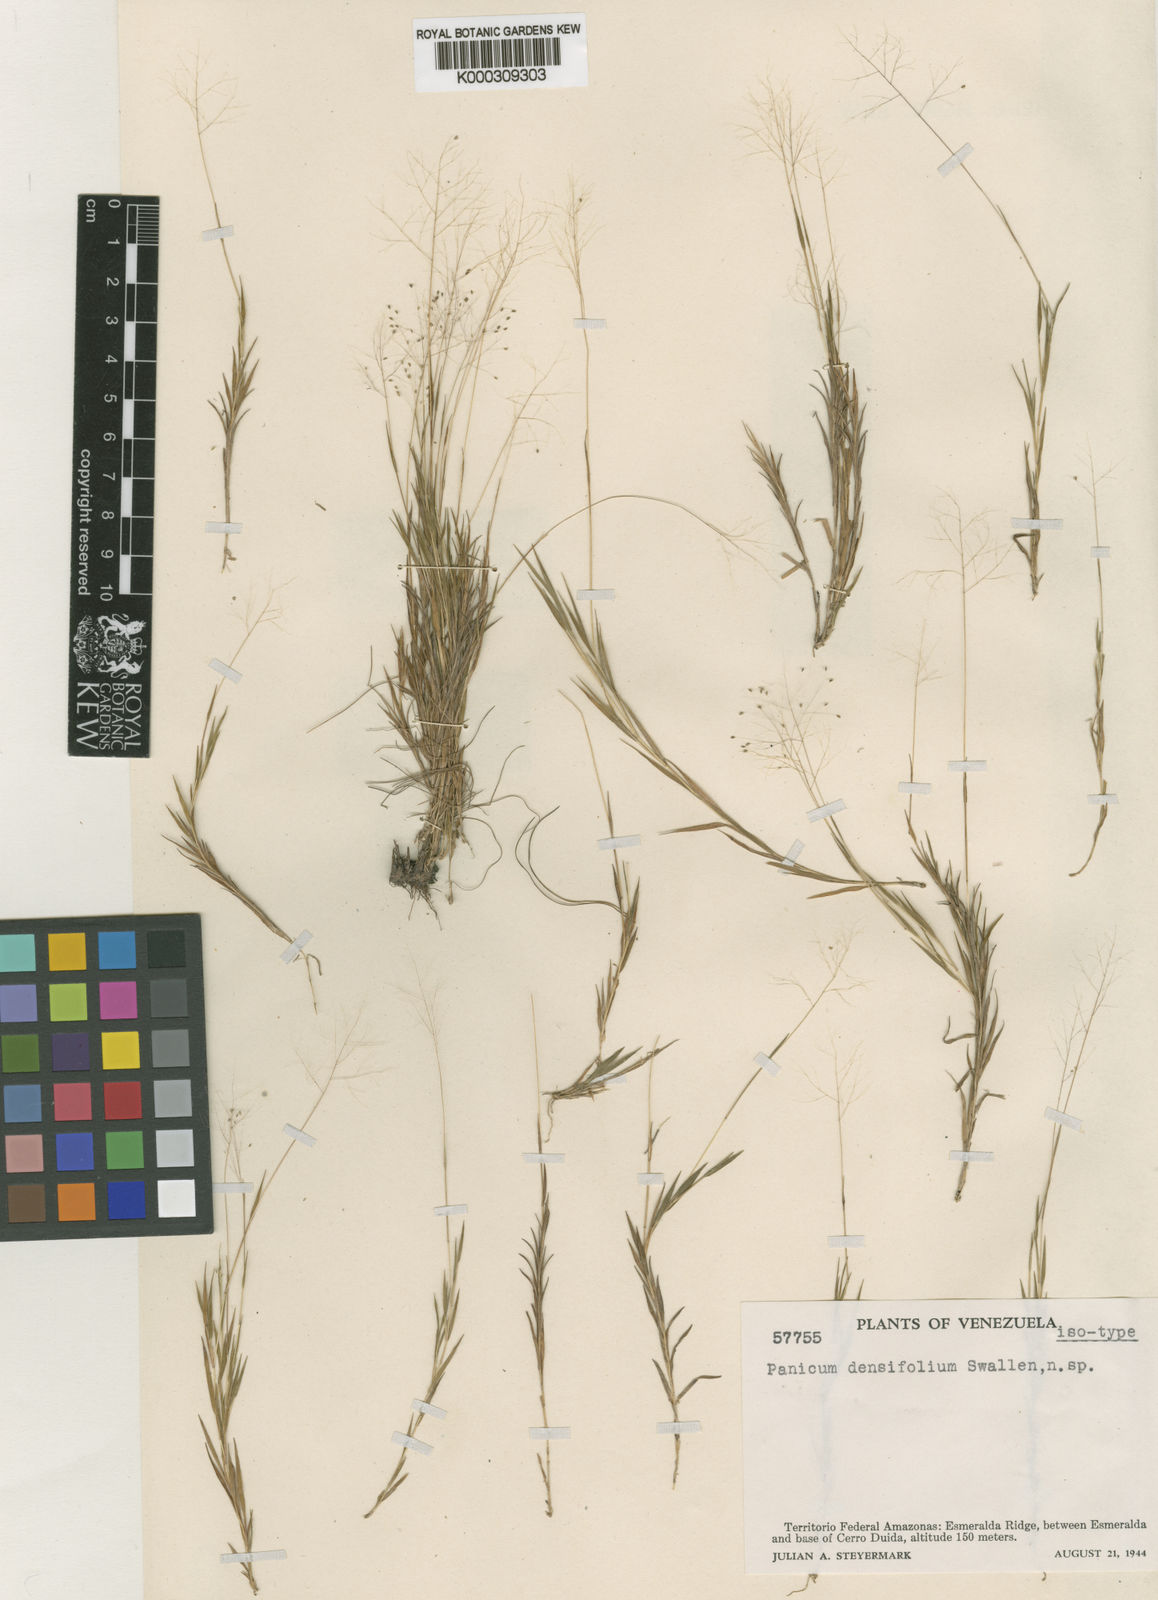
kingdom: Plantae
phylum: Tracheophyta
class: Liliopsida
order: Poales
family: Poaceae
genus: Trichanthecium
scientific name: Trichanthecium micranthum
